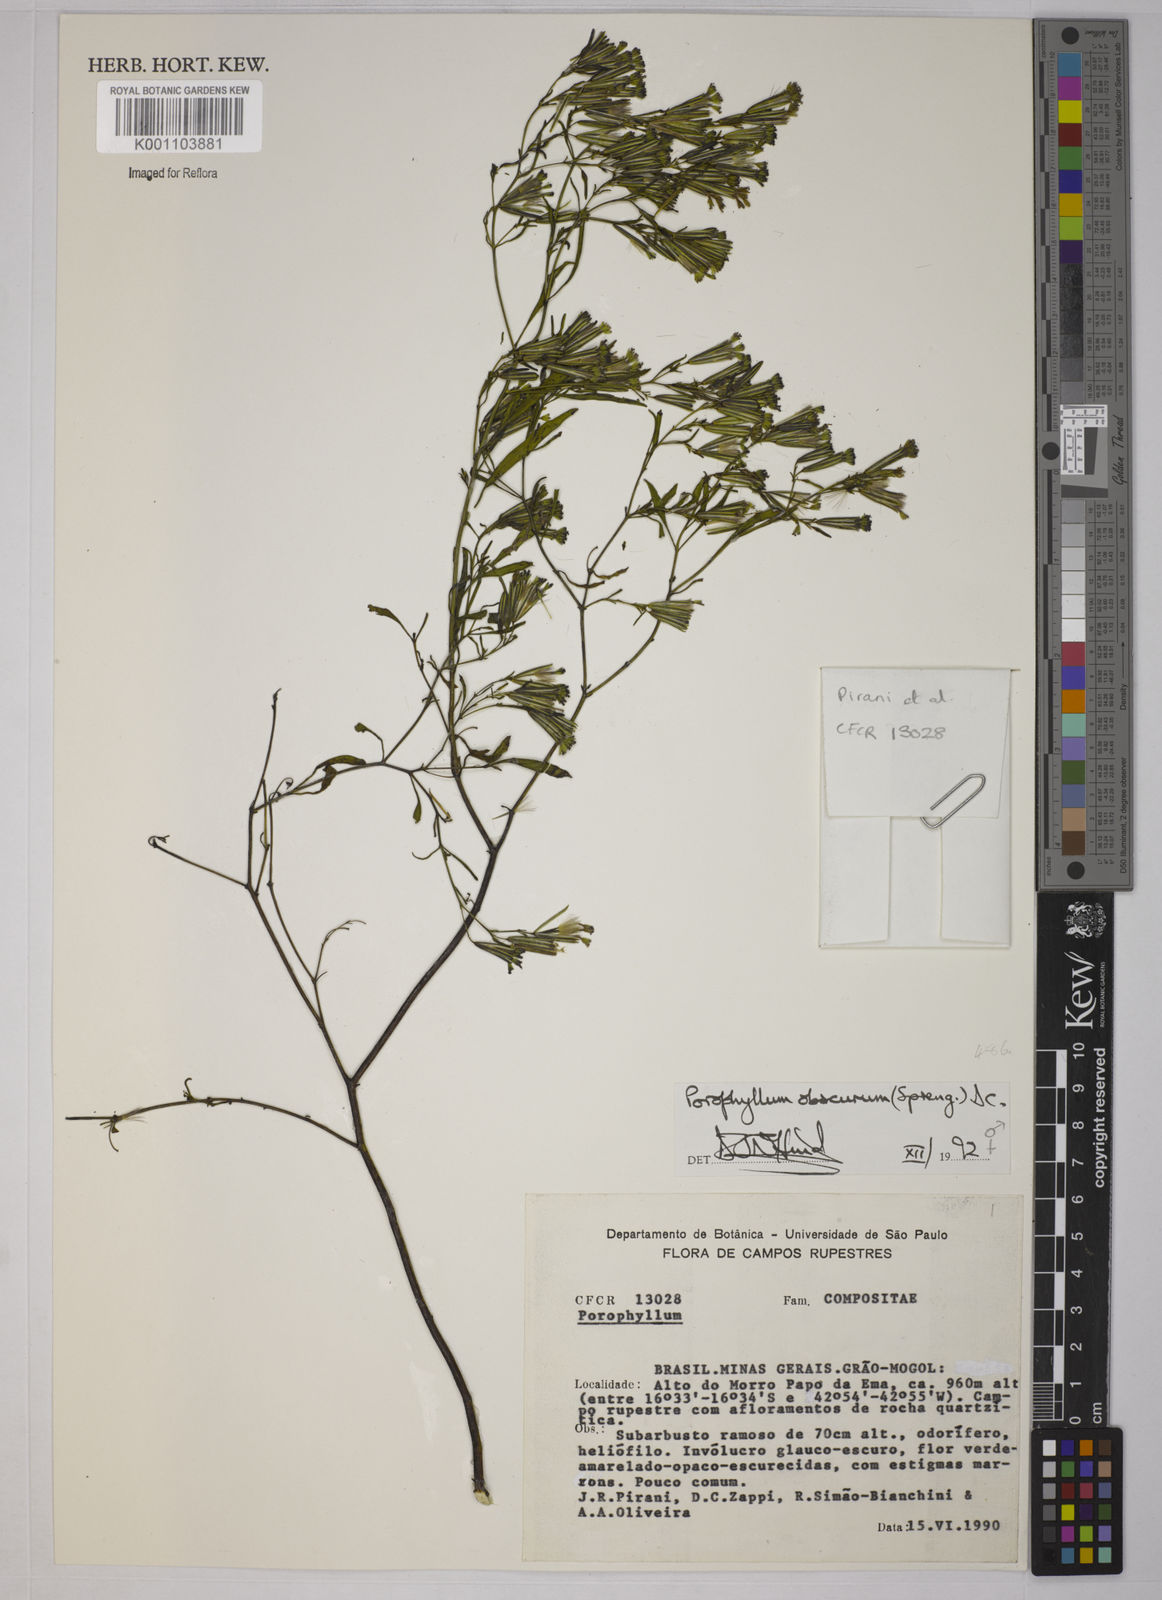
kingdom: Plantae
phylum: Tracheophyta
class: Magnoliopsida
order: Asterales
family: Asteraceae
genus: Porophyllum
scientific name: Porophyllum obscurum
